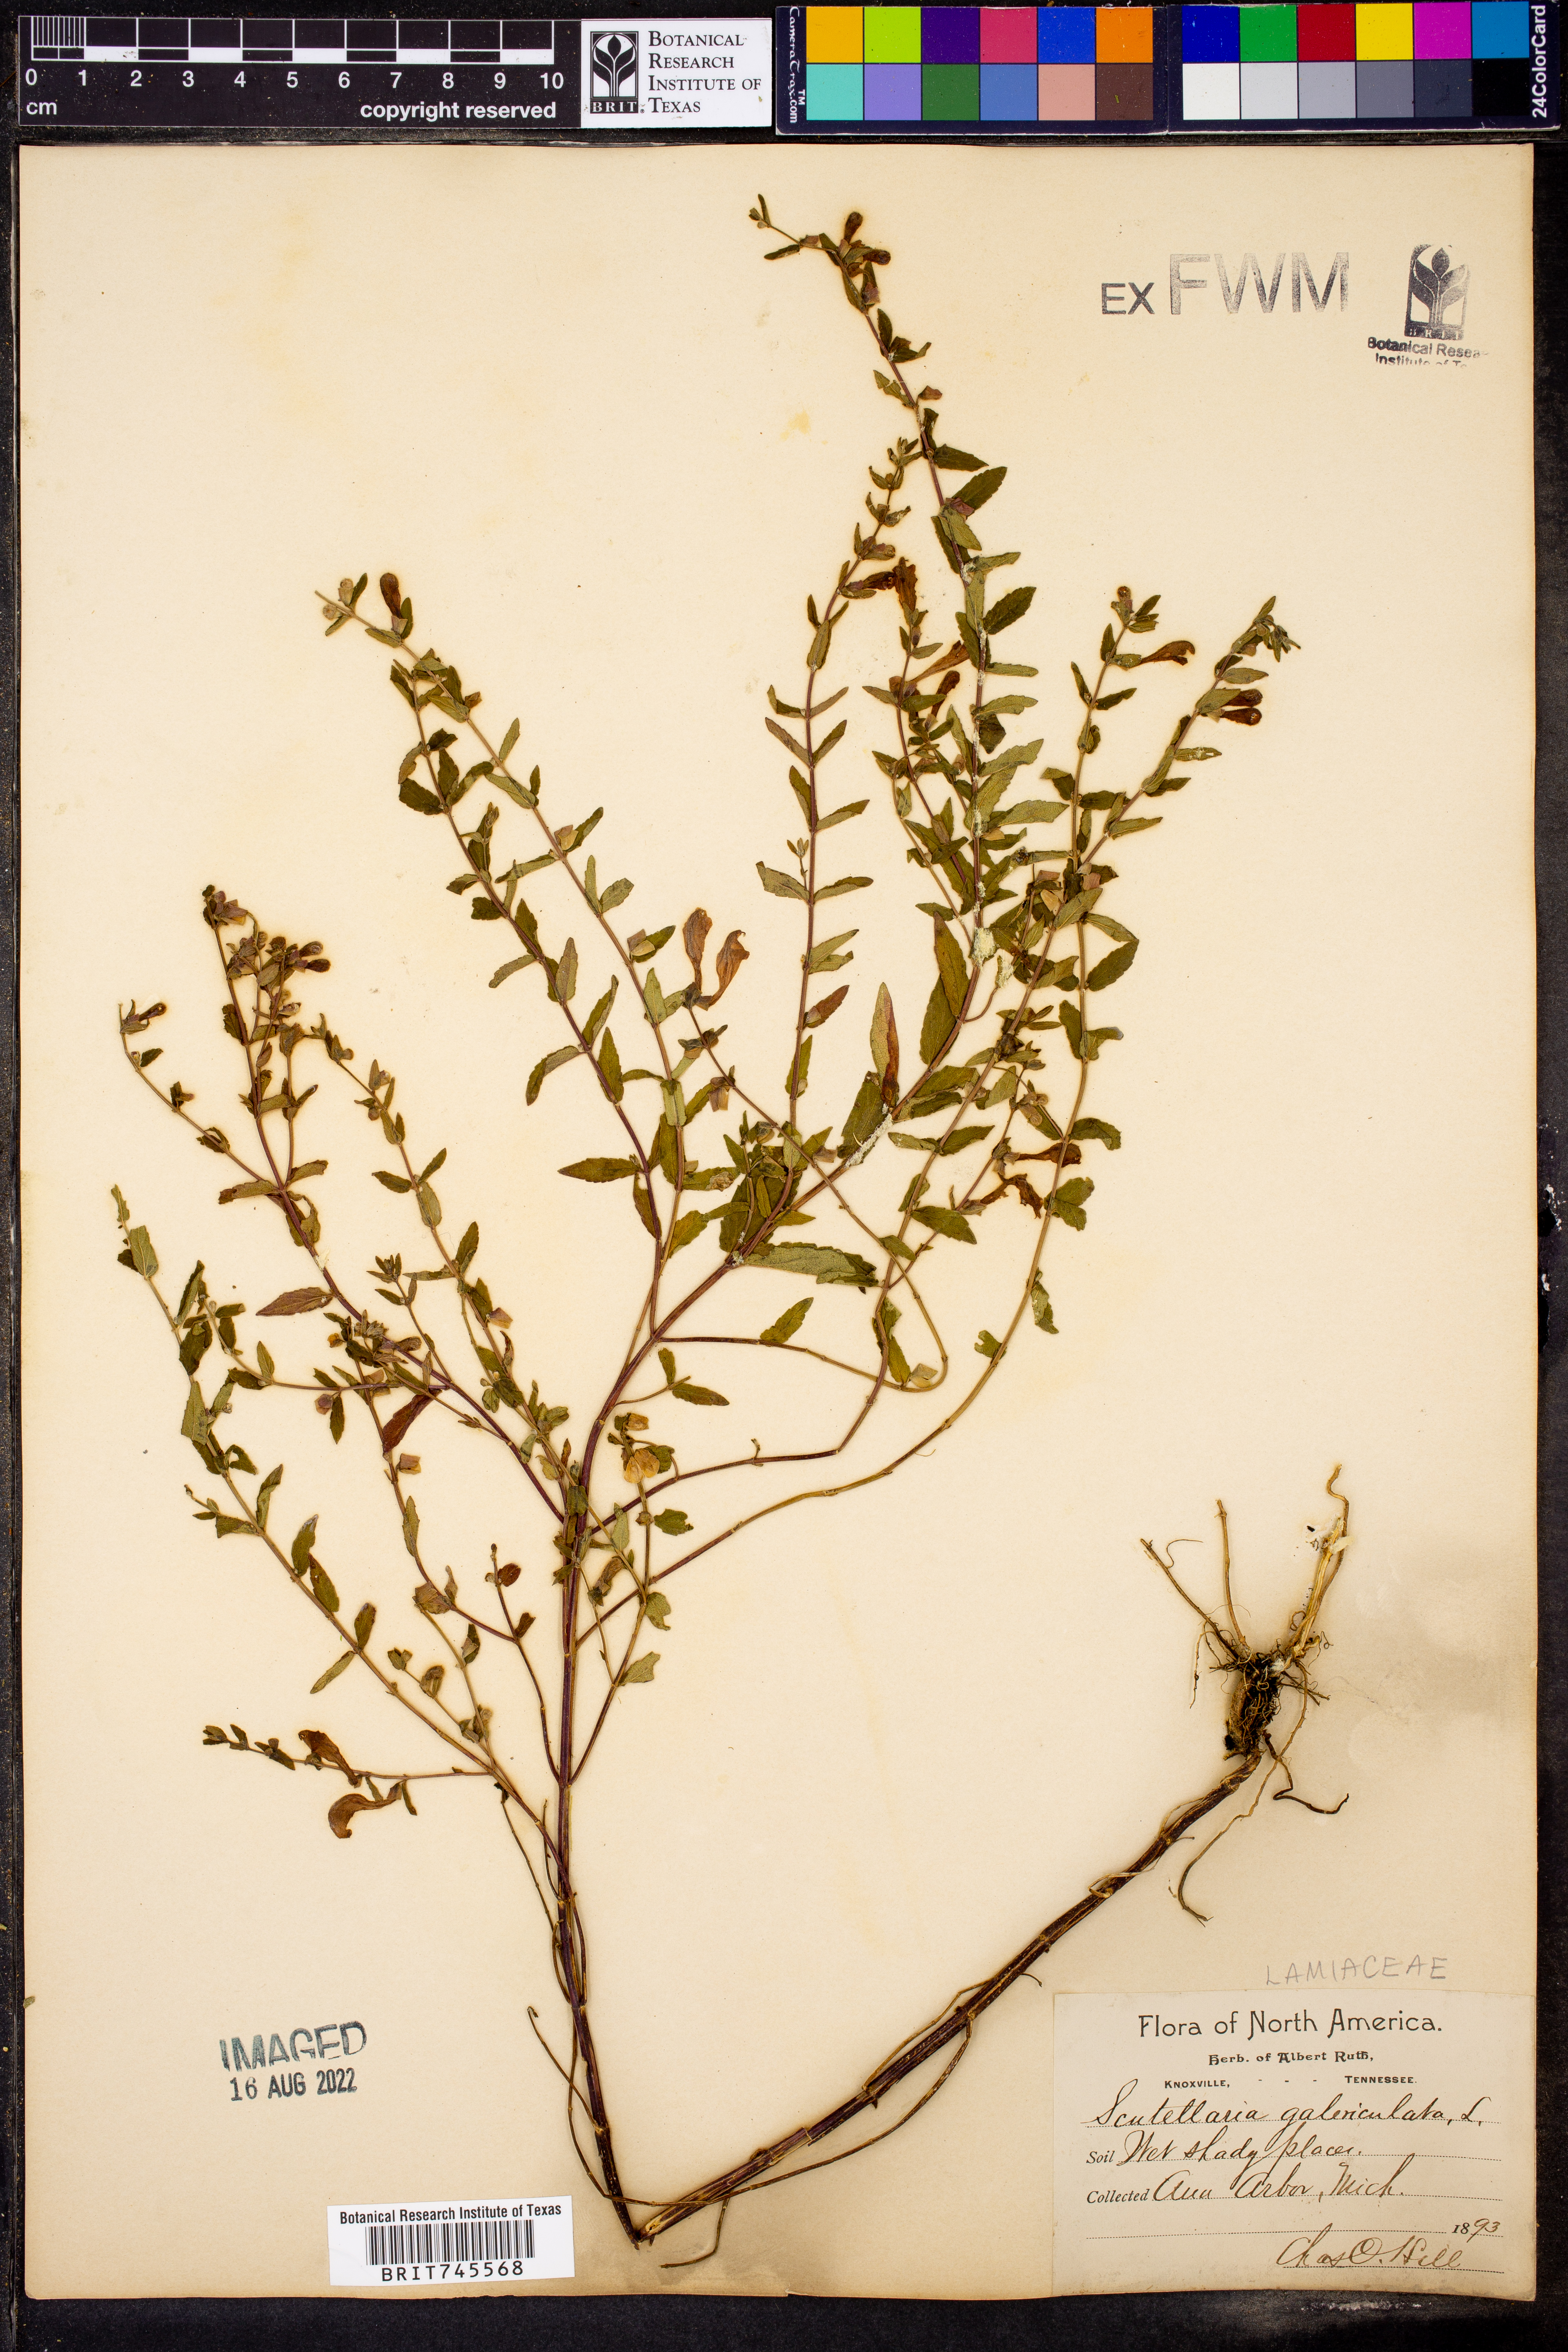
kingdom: Plantae
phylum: Tracheophyta
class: Magnoliopsida
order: Lamiales
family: Lamiaceae
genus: Scutellaria
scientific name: Scutellaria galericulata
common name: Skullcap
